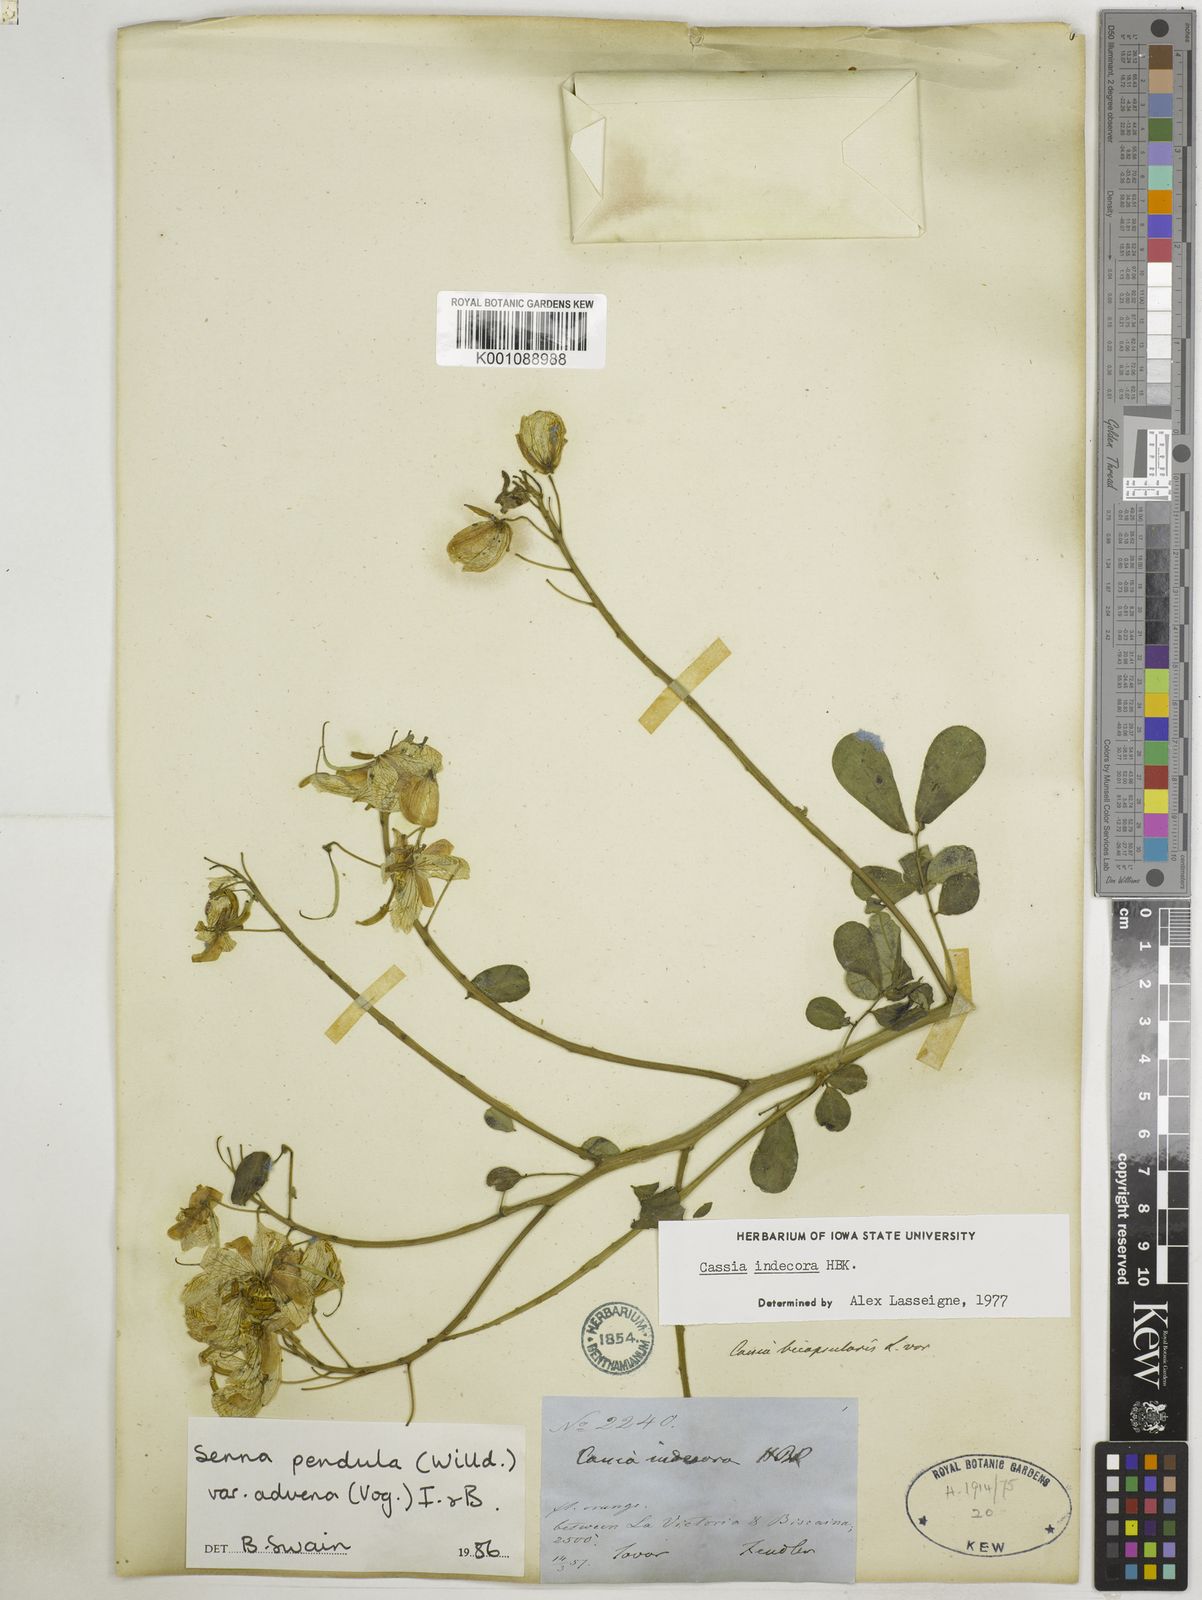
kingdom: Plantae
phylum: Tracheophyta
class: Magnoliopsida
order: Fabales
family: Fabaceae
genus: Senna
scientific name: Senna pendula
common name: Easter cassia
